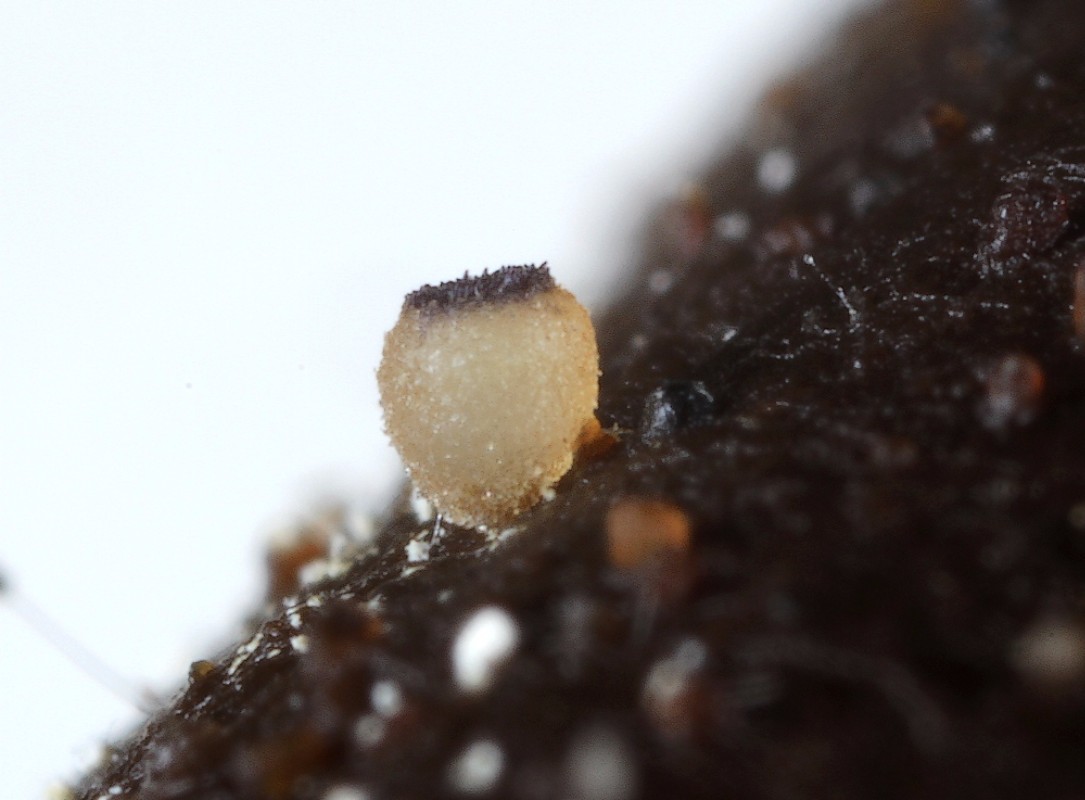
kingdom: Fungi
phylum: Ascomycota
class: Pezizomycetes
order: Pezizales
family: Ascobolaceae
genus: Ascobolus
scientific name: Ascobolus
